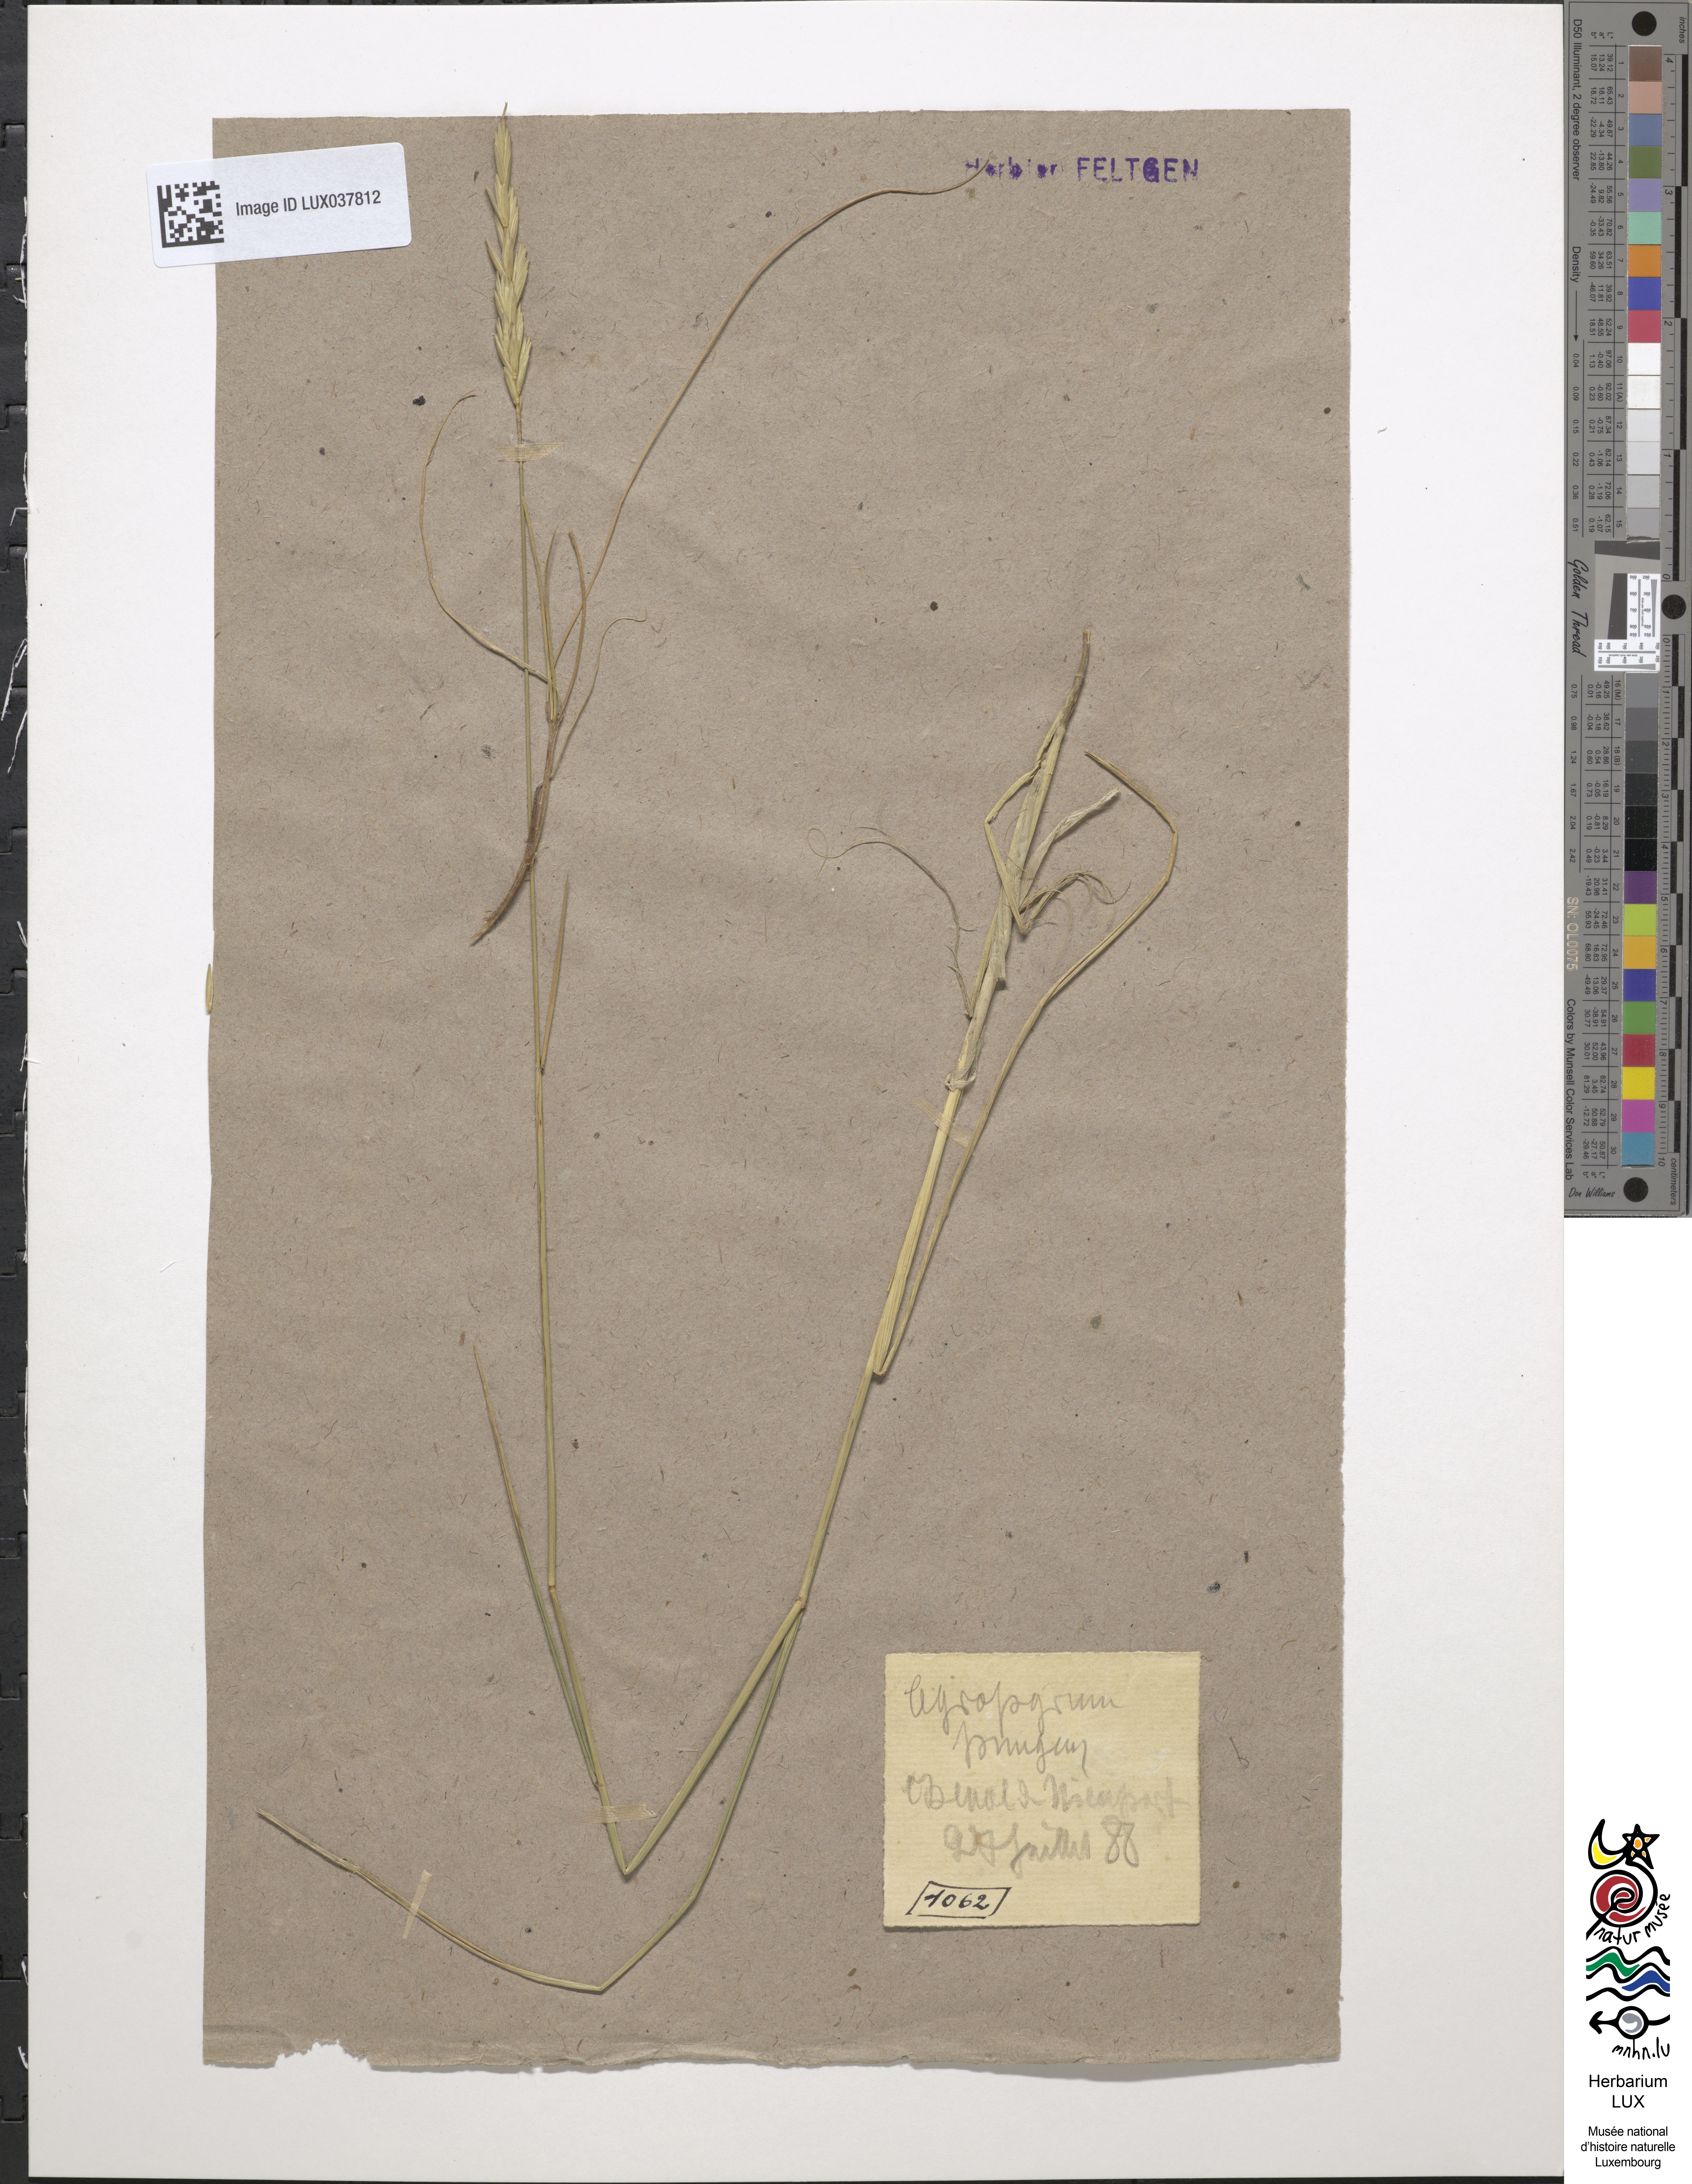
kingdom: Plantae
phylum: Tracheophyta
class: Liliopsida
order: Poales
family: Poaceae
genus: Elymus
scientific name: Elymus pungens
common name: Sea couch
